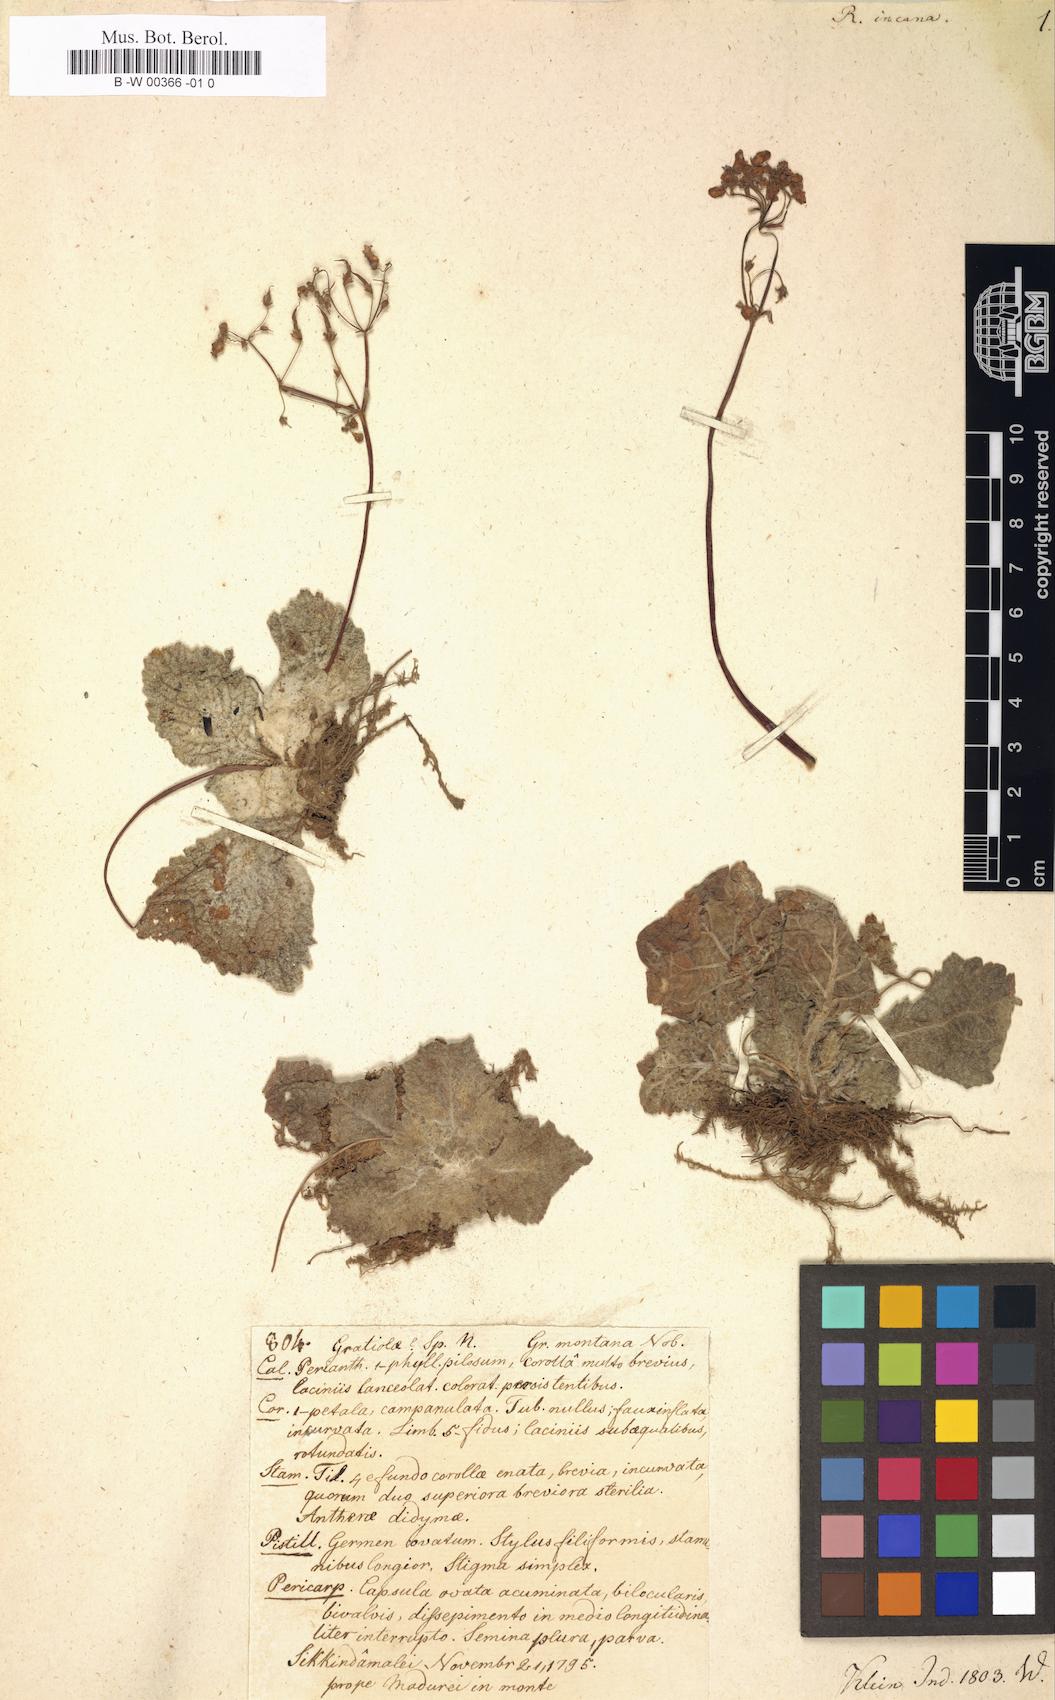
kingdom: Plantae
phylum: Tracheophyta
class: Magnoliopsida
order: Lamiales
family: Gesneriaceae
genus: Henckelia
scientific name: Henckelia incana
